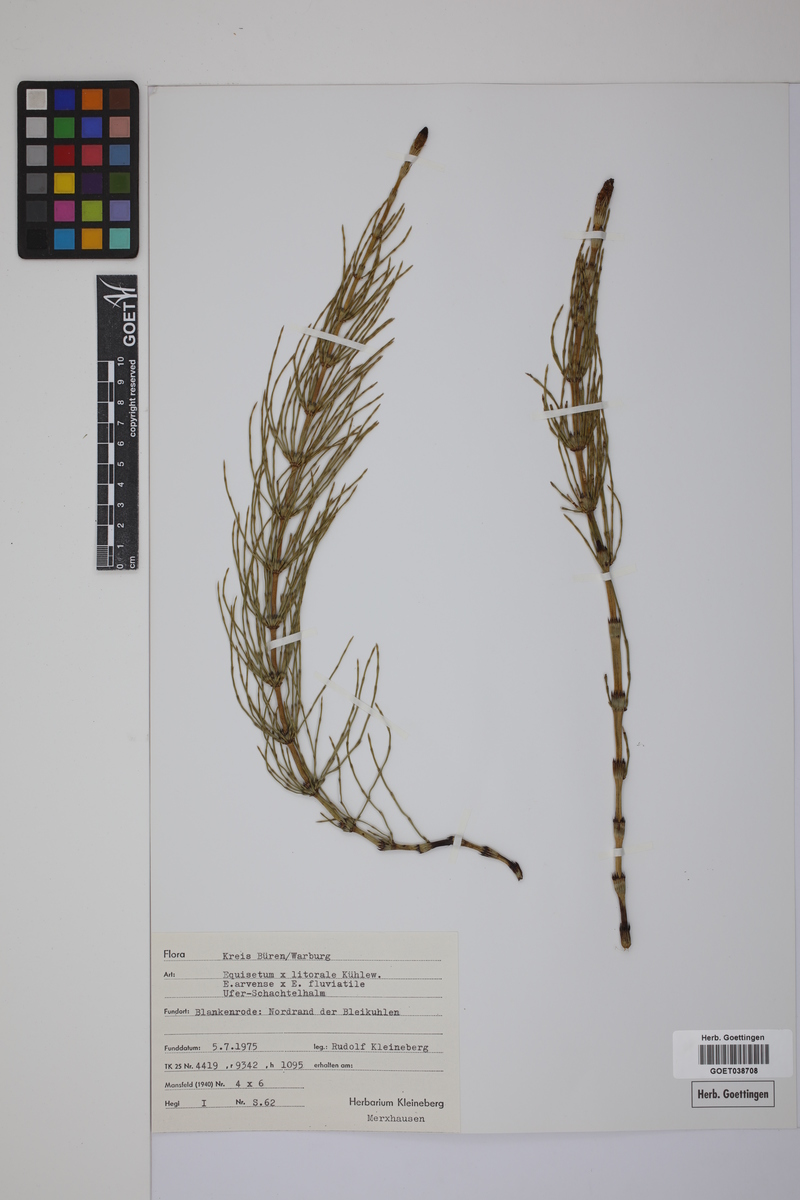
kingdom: Plantae
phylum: Tracheophyta
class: Polypodiopsida
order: Equisetales
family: Equisetaceae
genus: Equisetum
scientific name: Equisetum litorale
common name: Littoral horsetail
